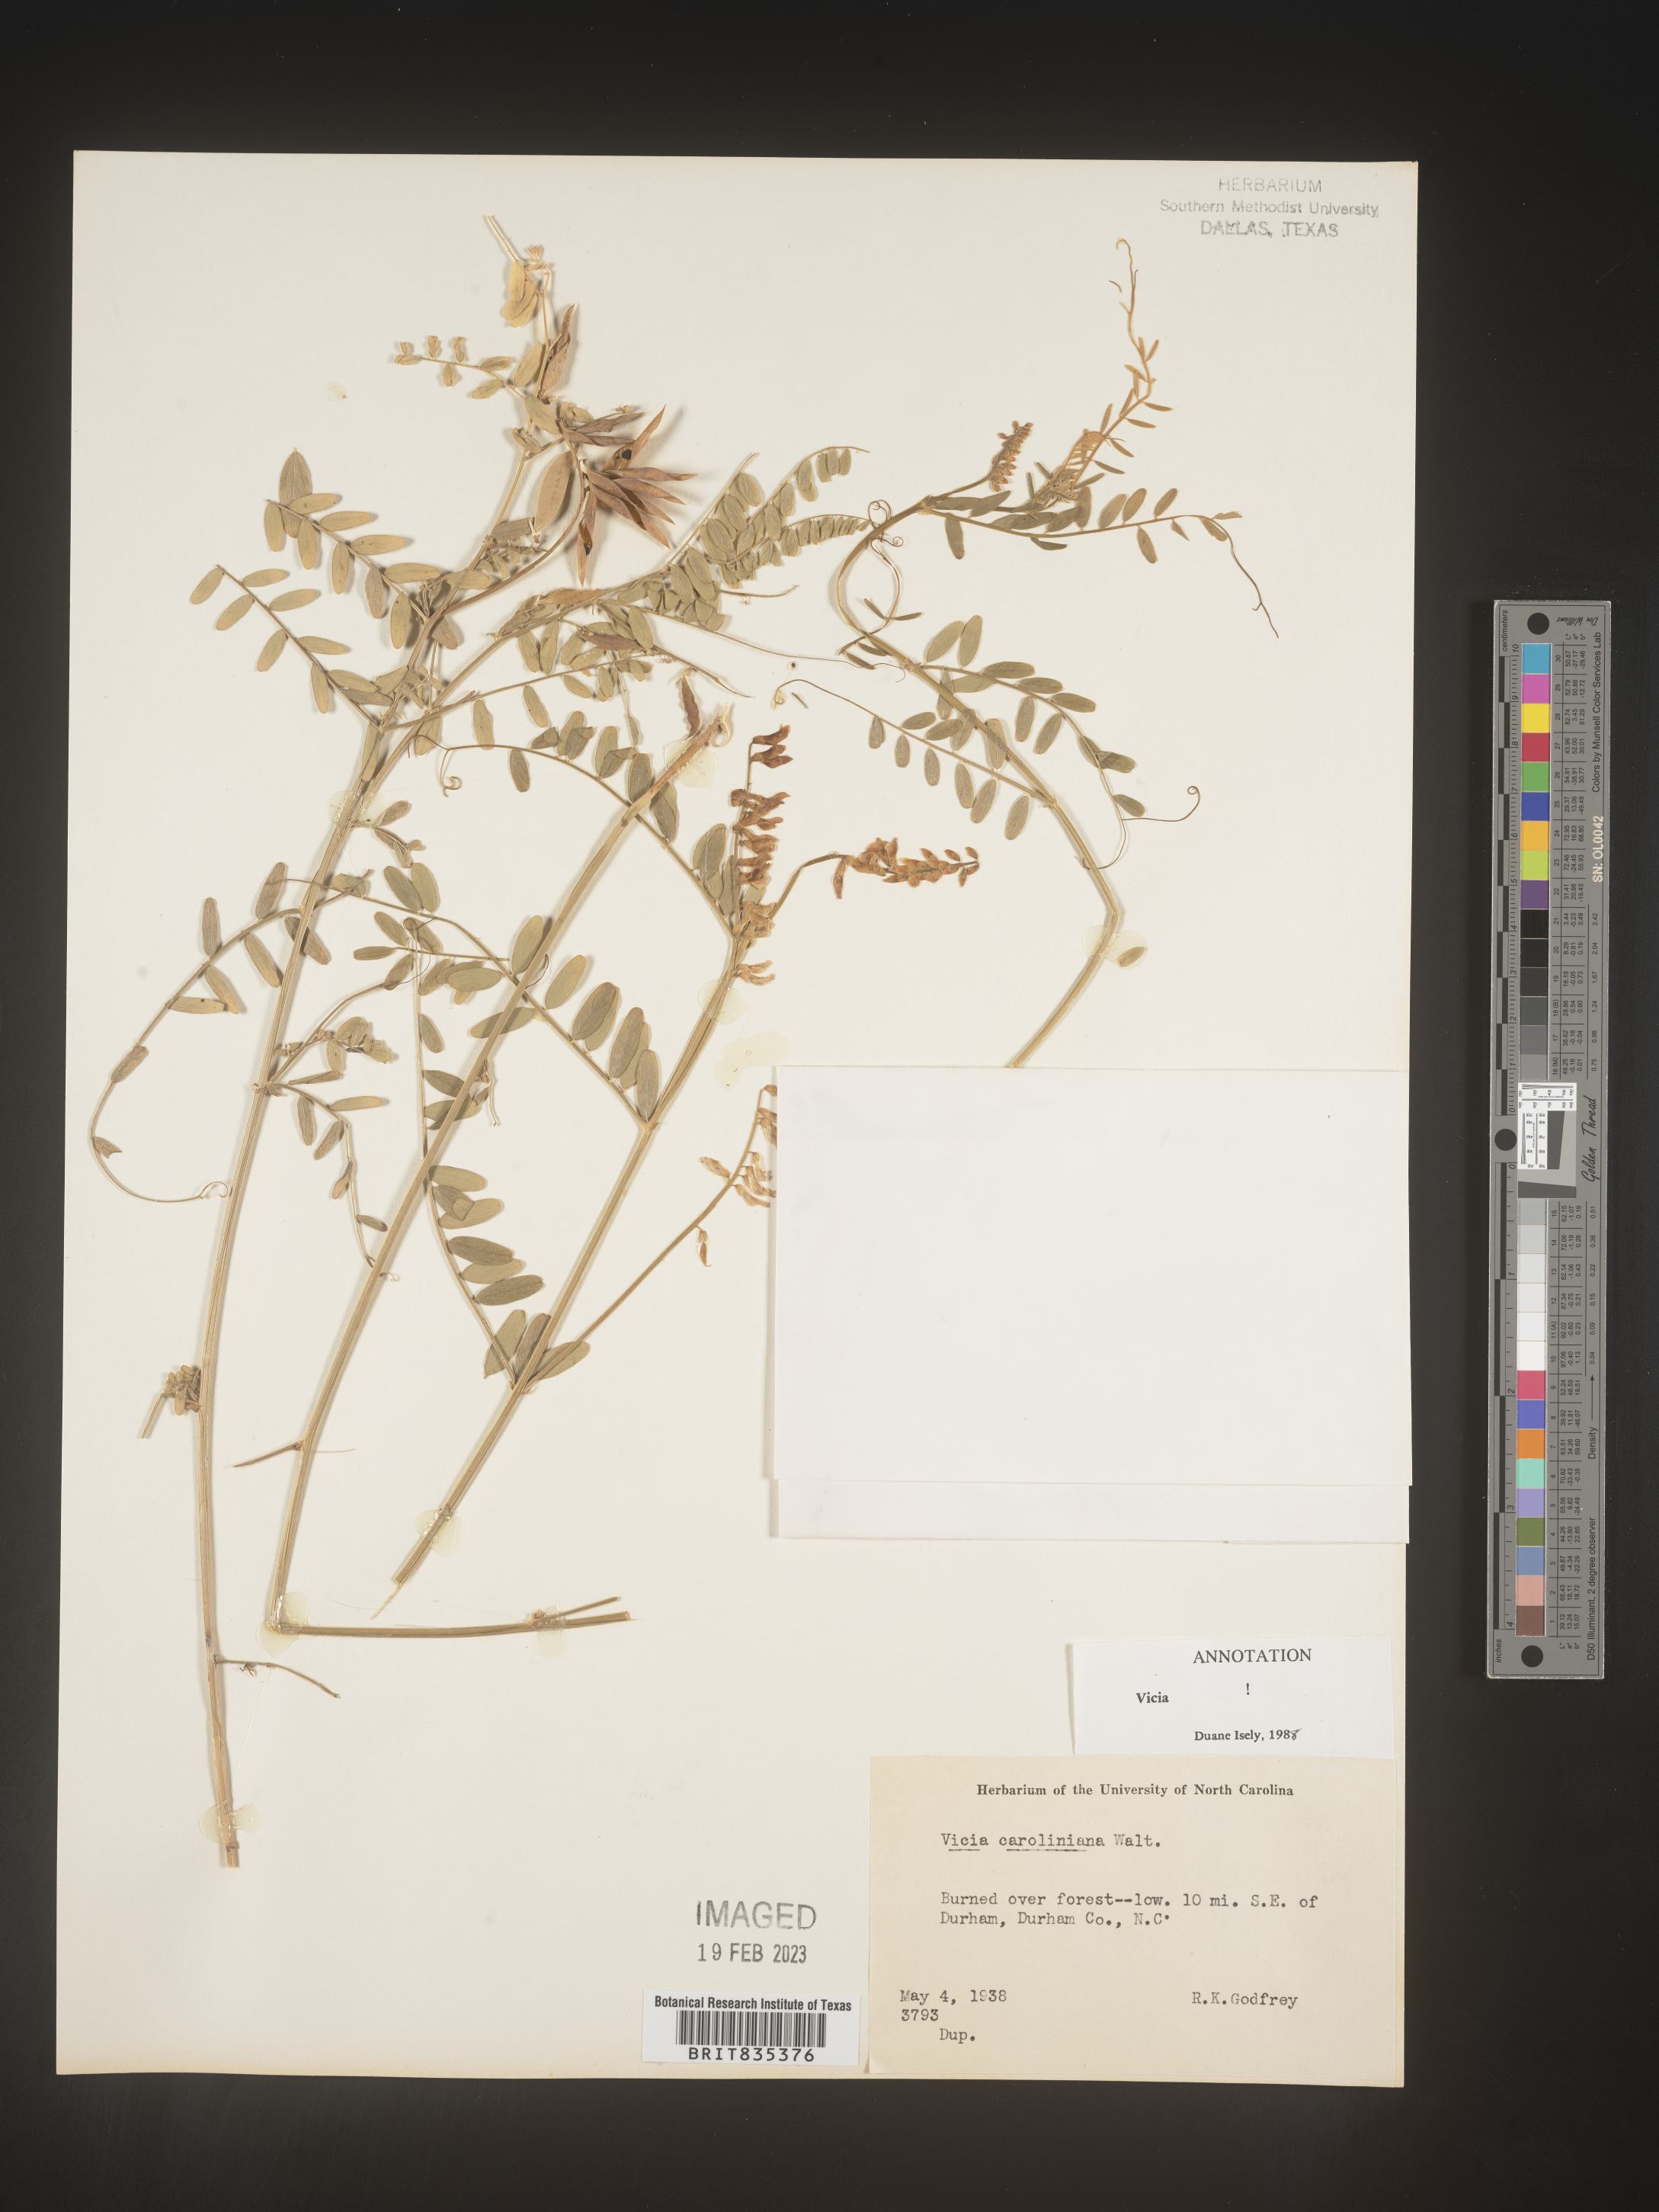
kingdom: Plantae
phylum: Tracheophyta
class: Magnoliopsida
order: Fabales
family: Fabaceae
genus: Vicia
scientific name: Vicia caroliniana
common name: Carolina vetch
